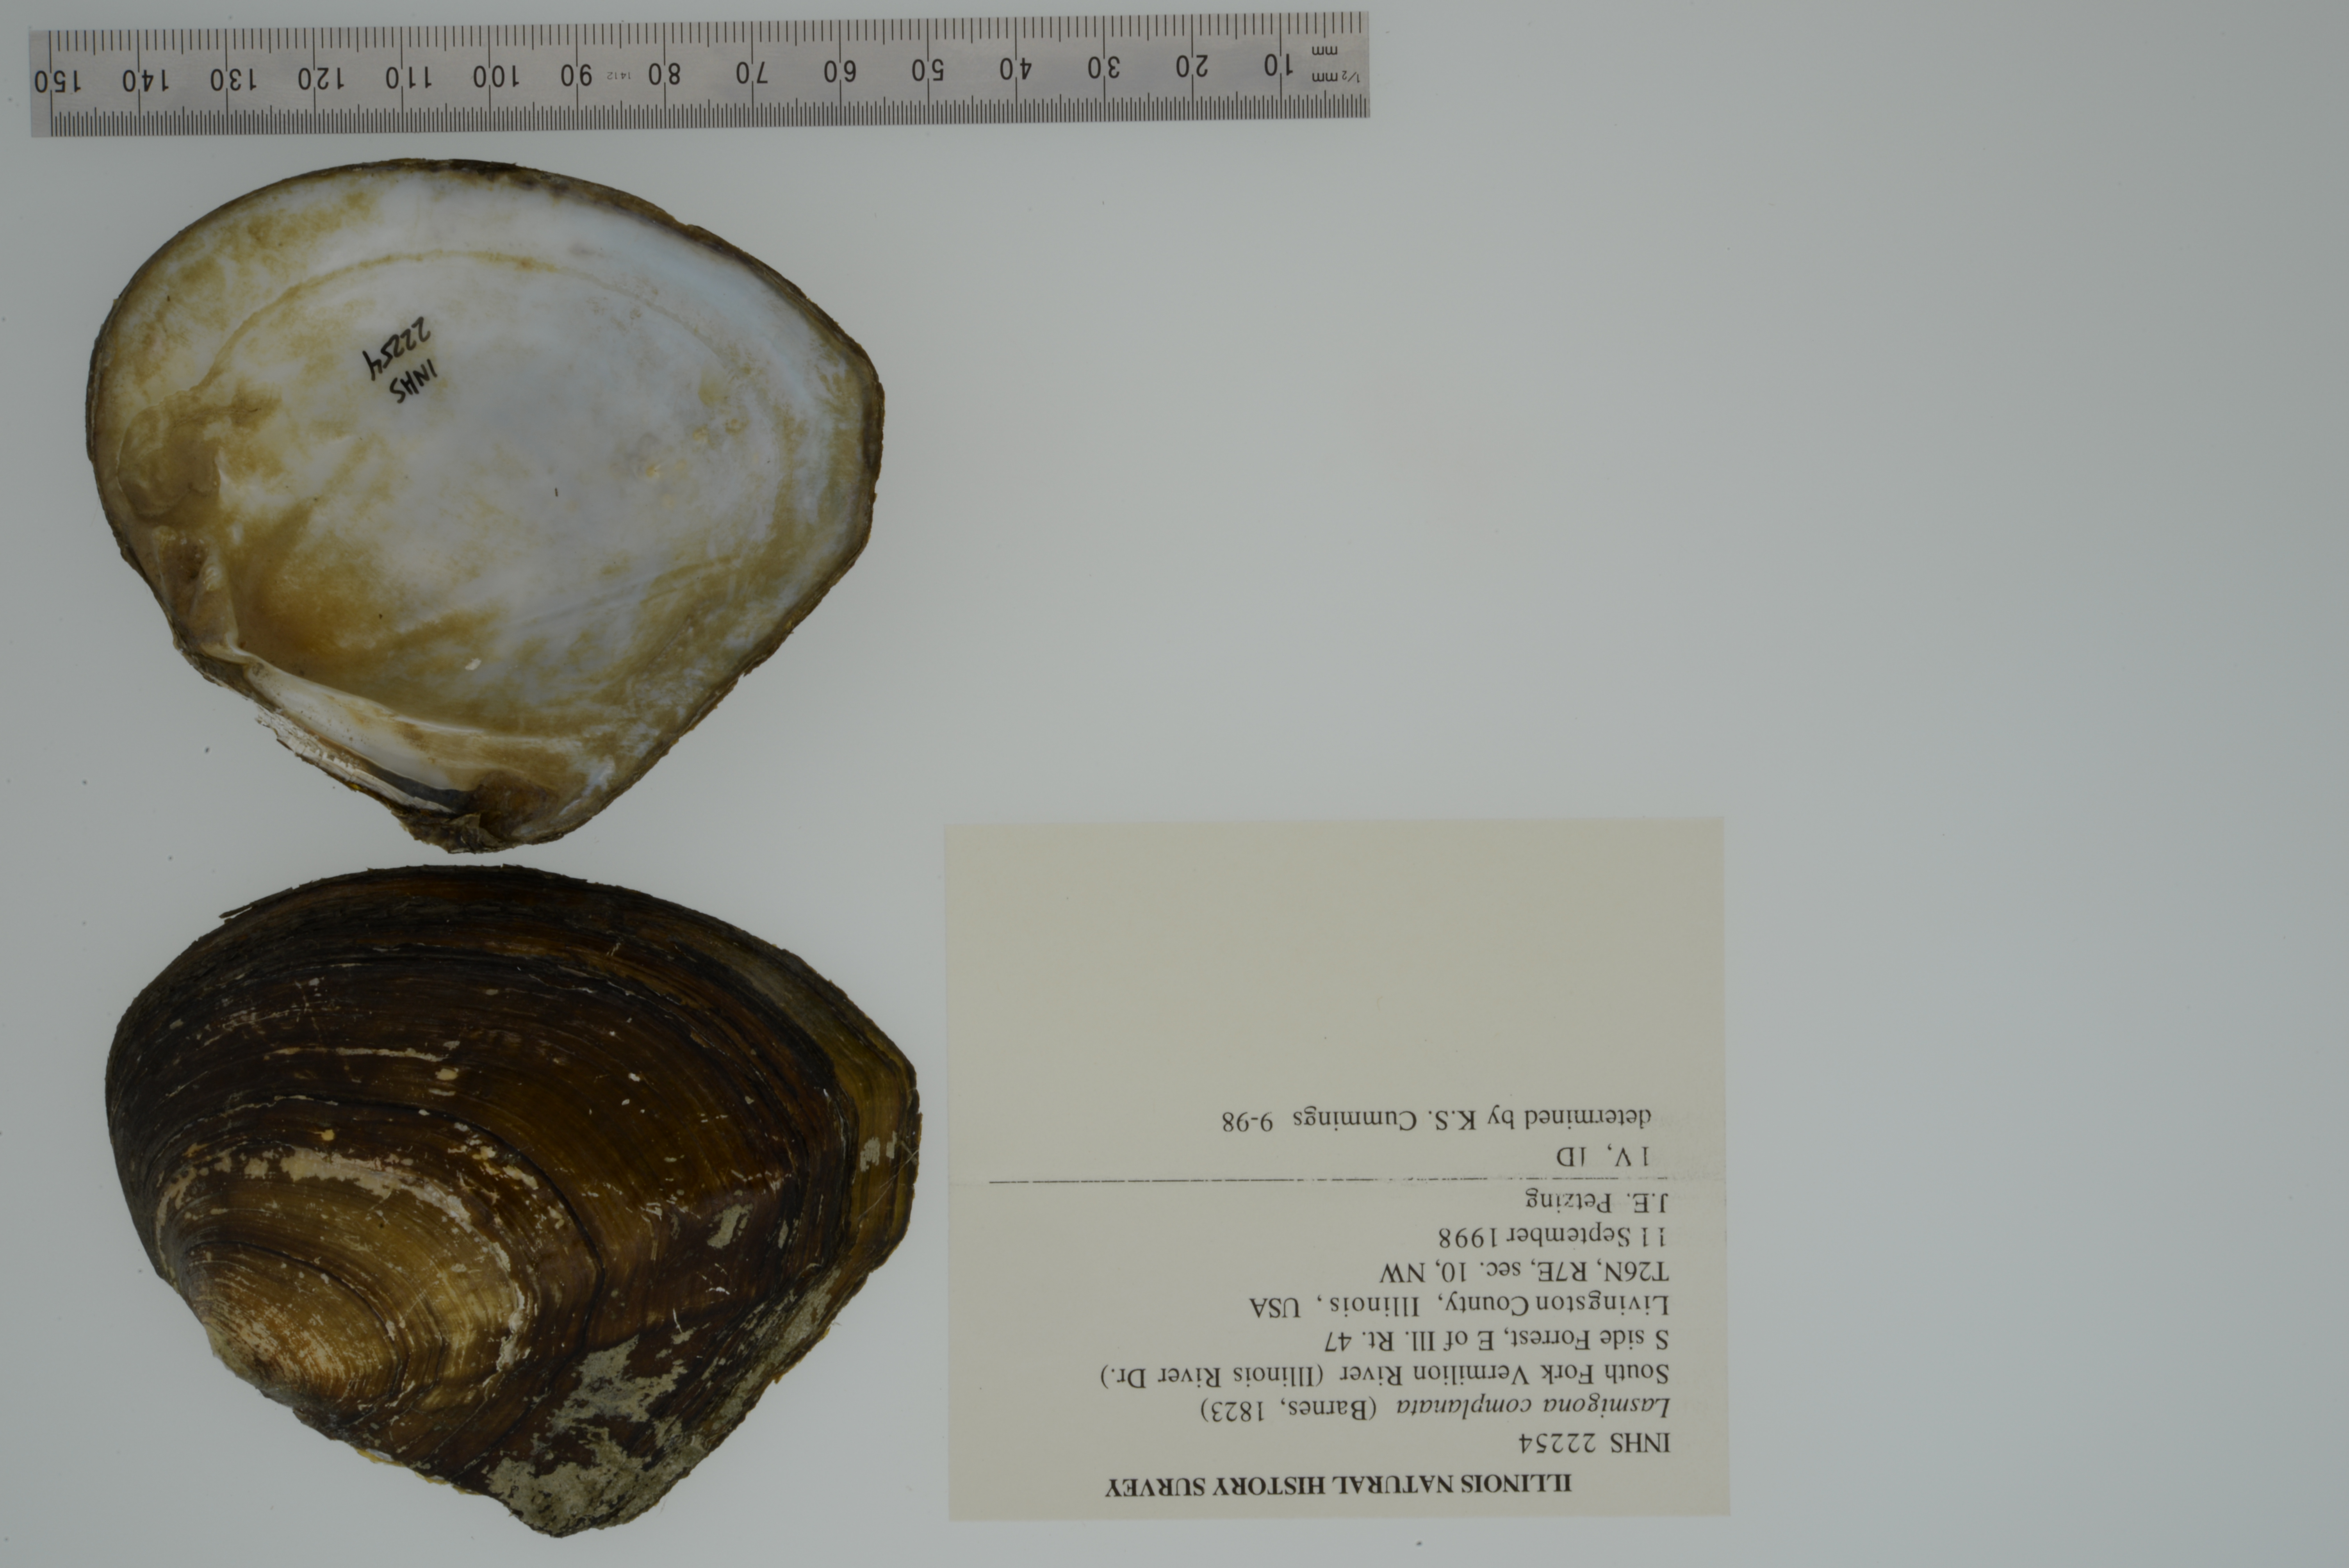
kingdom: Animalia
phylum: Mollusca
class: Bivalvia
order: Unionida
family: Unionidae
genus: Lasmigona
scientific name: Lasmigona complanata
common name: White heelsplitter
